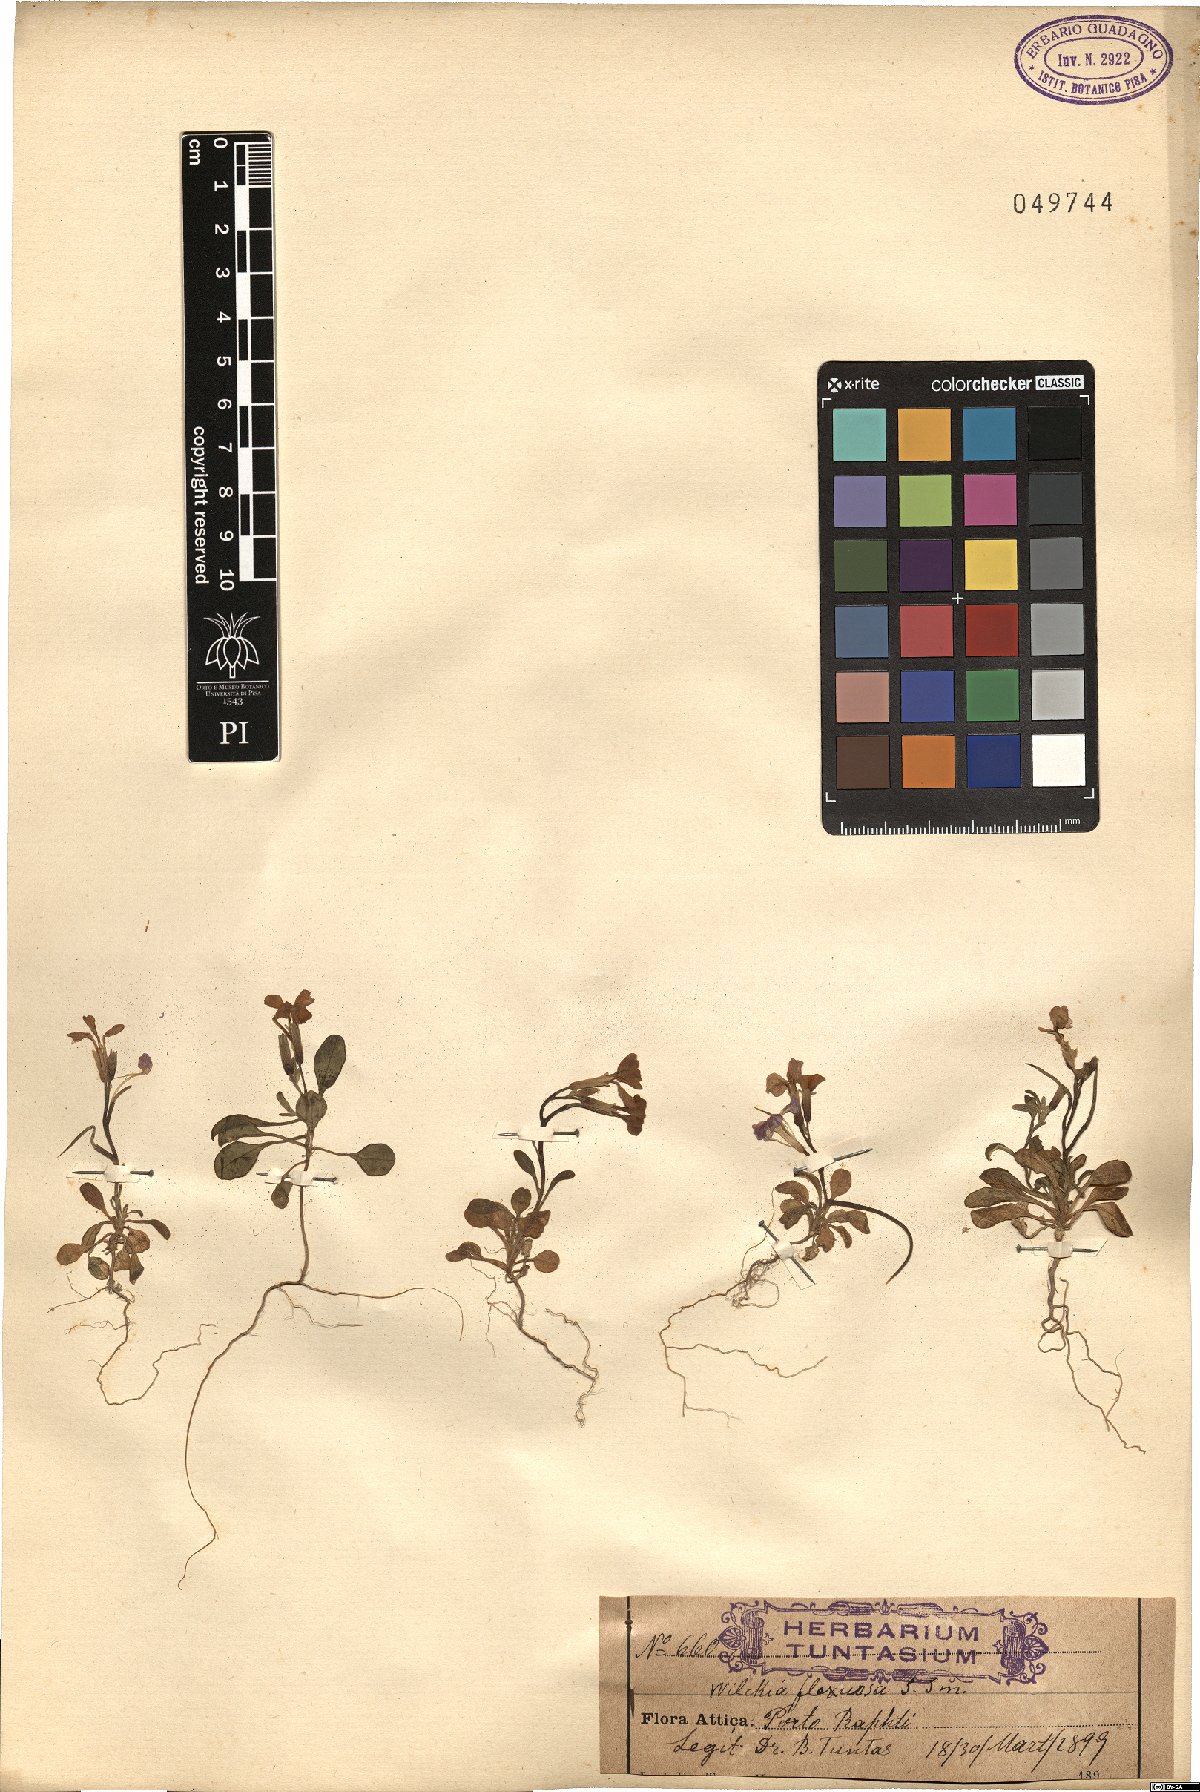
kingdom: Plantae
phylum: Tracheophyta
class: Magnoliopsida
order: Brassicales
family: Brassicaceae
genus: Malcolmia
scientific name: Malcolmia flexuosa
